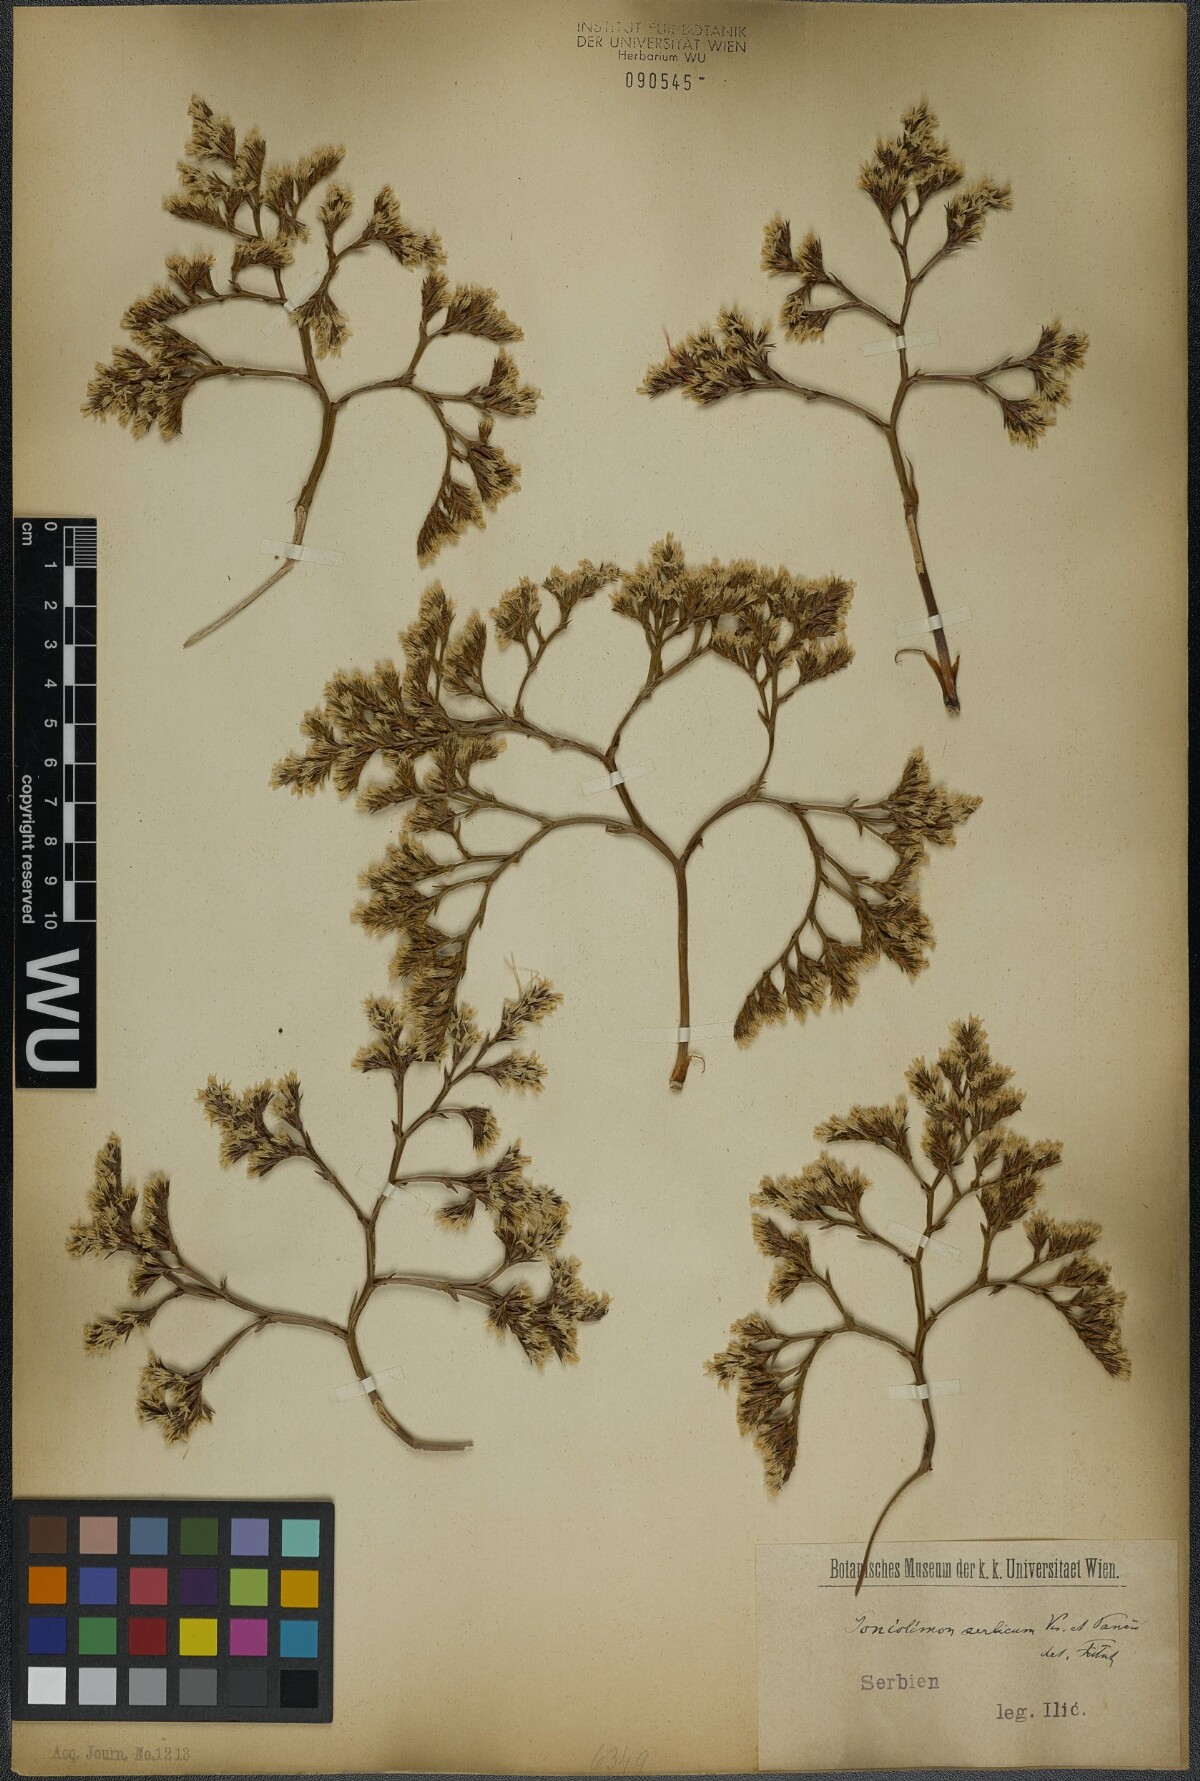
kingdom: Plantae
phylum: Tracheophyta
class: Magnoliopsida
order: Caryophyllales
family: Plumbaginaceae
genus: Goniolimon
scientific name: Goniolimon incanum
